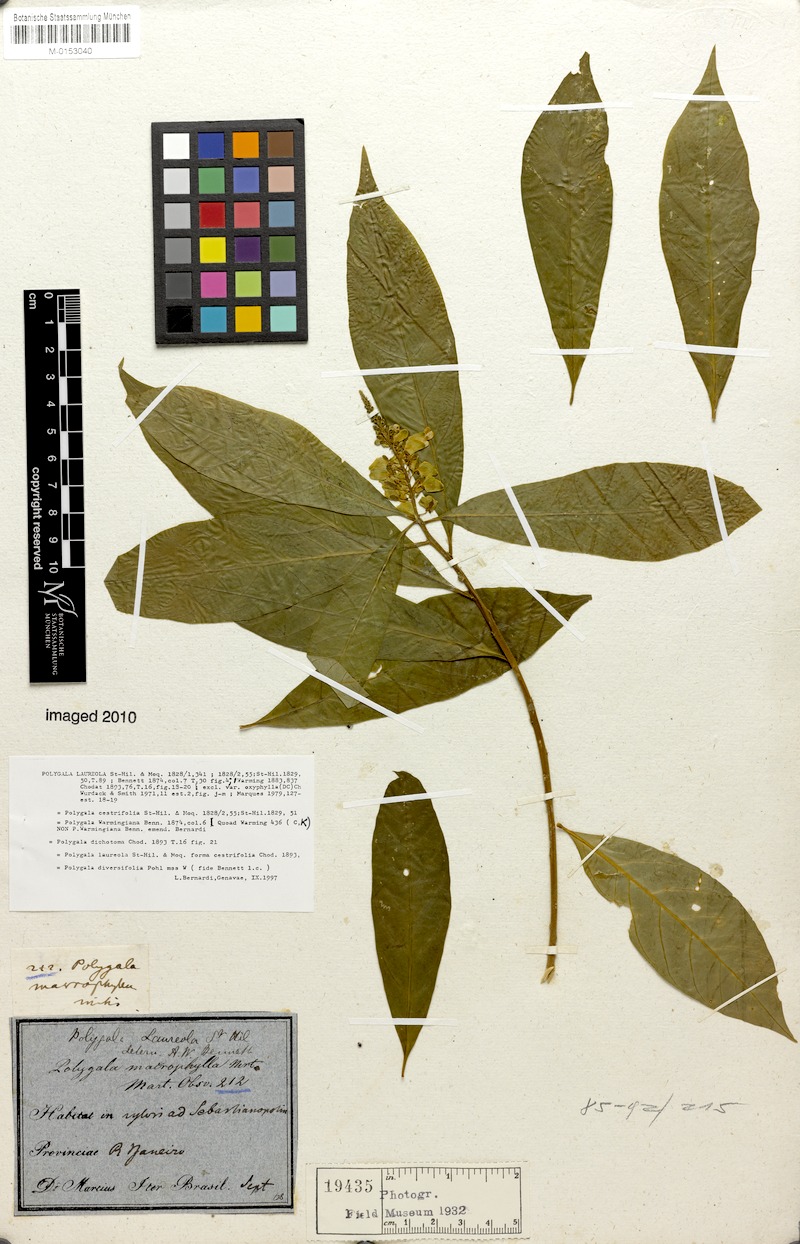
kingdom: Plantae
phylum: Tracheophyta
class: Magnoliopsida
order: Fabales
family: Polygalaceae
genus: Caamembeca
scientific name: Caamembeca salicifolia
